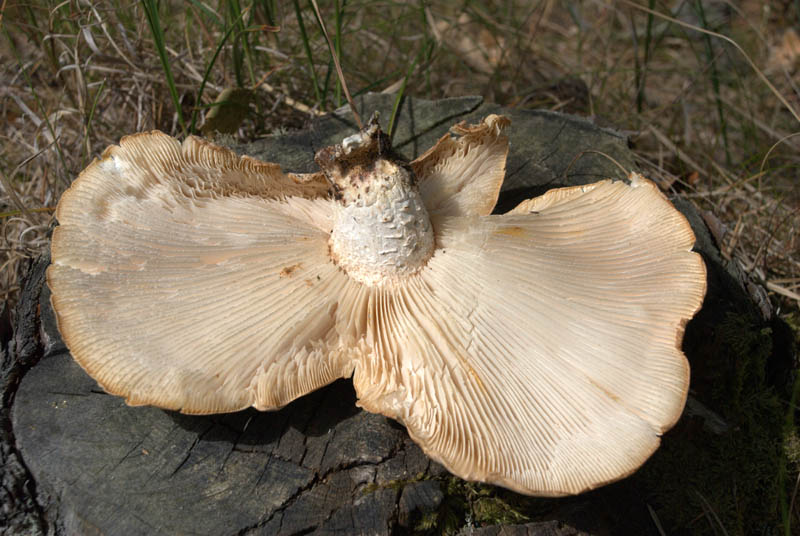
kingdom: Fungi
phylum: Basidiomycota
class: Agaricomycetes
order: Gloeophyllales
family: Gloeophyllaceae
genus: Neolentinus
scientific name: Neolentinus lepideus
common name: skællet sejhat
